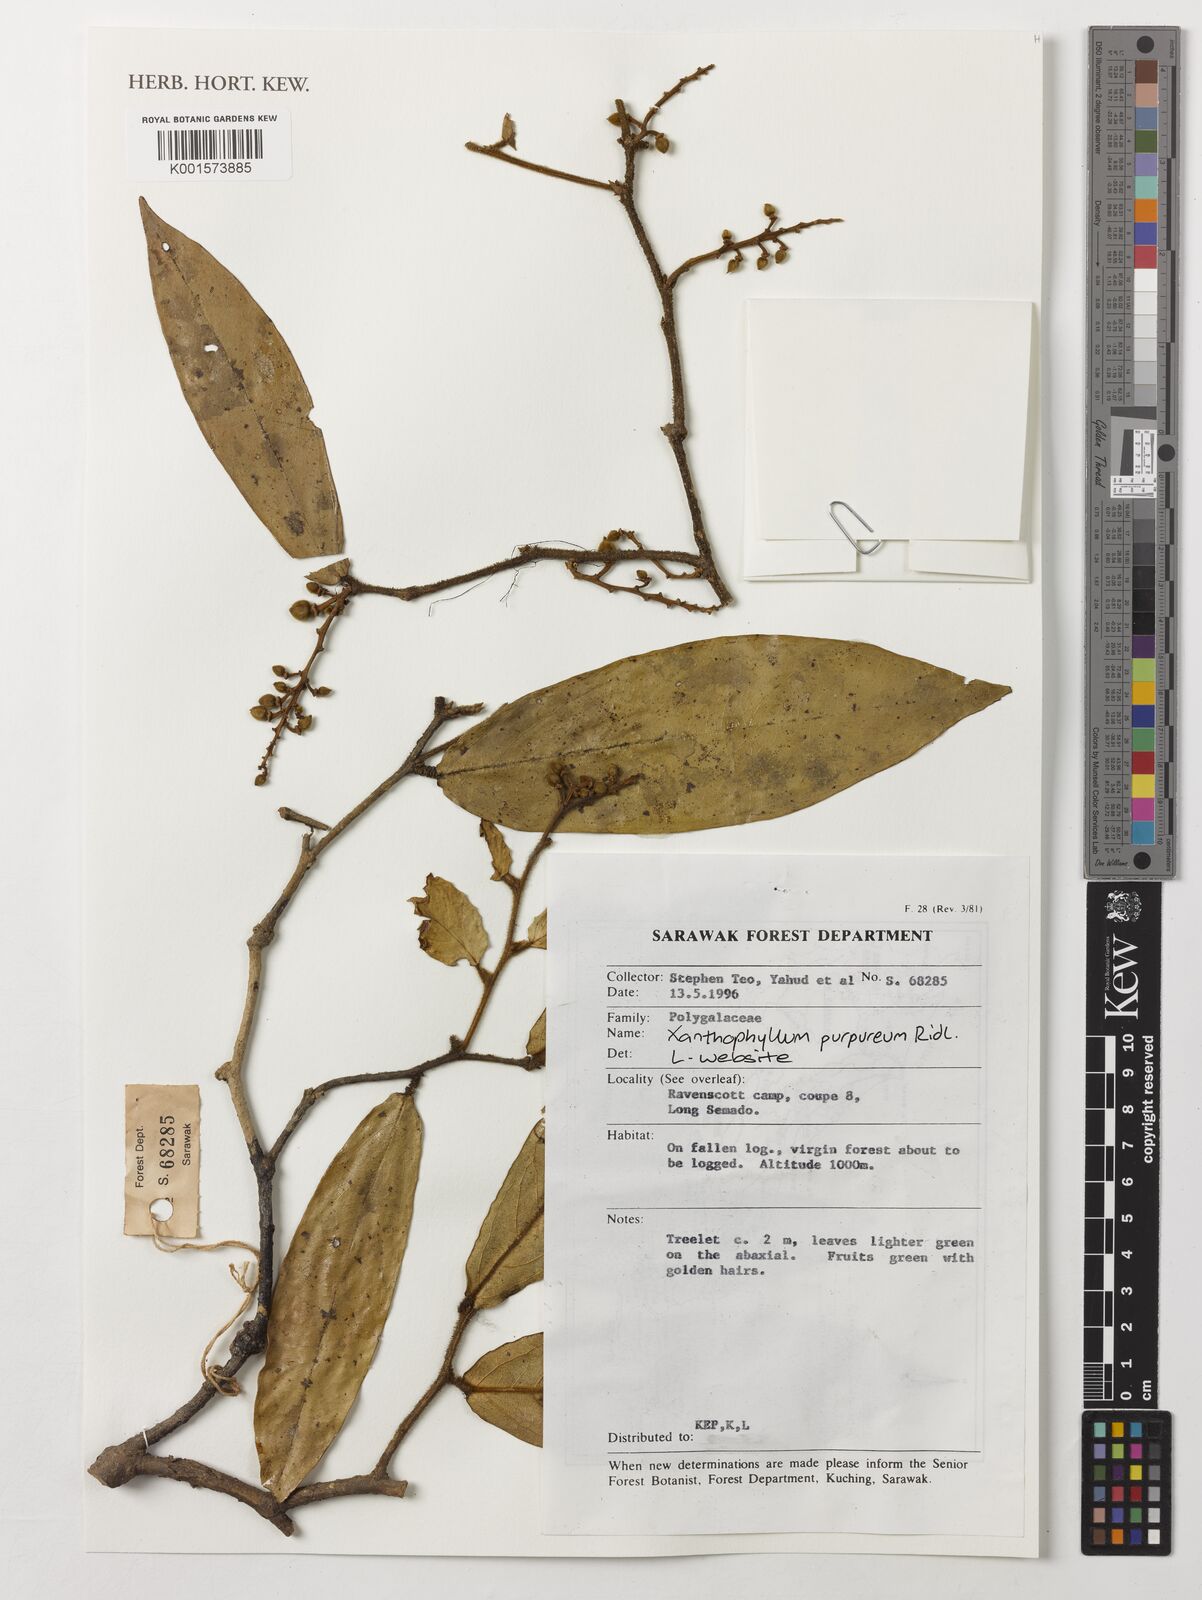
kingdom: Plantae
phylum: Tracheophyta
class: Magnoliopsida
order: Fabales
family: Polygalaceae
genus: Xanthophyllum
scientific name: Xanthophyllum purpureum
